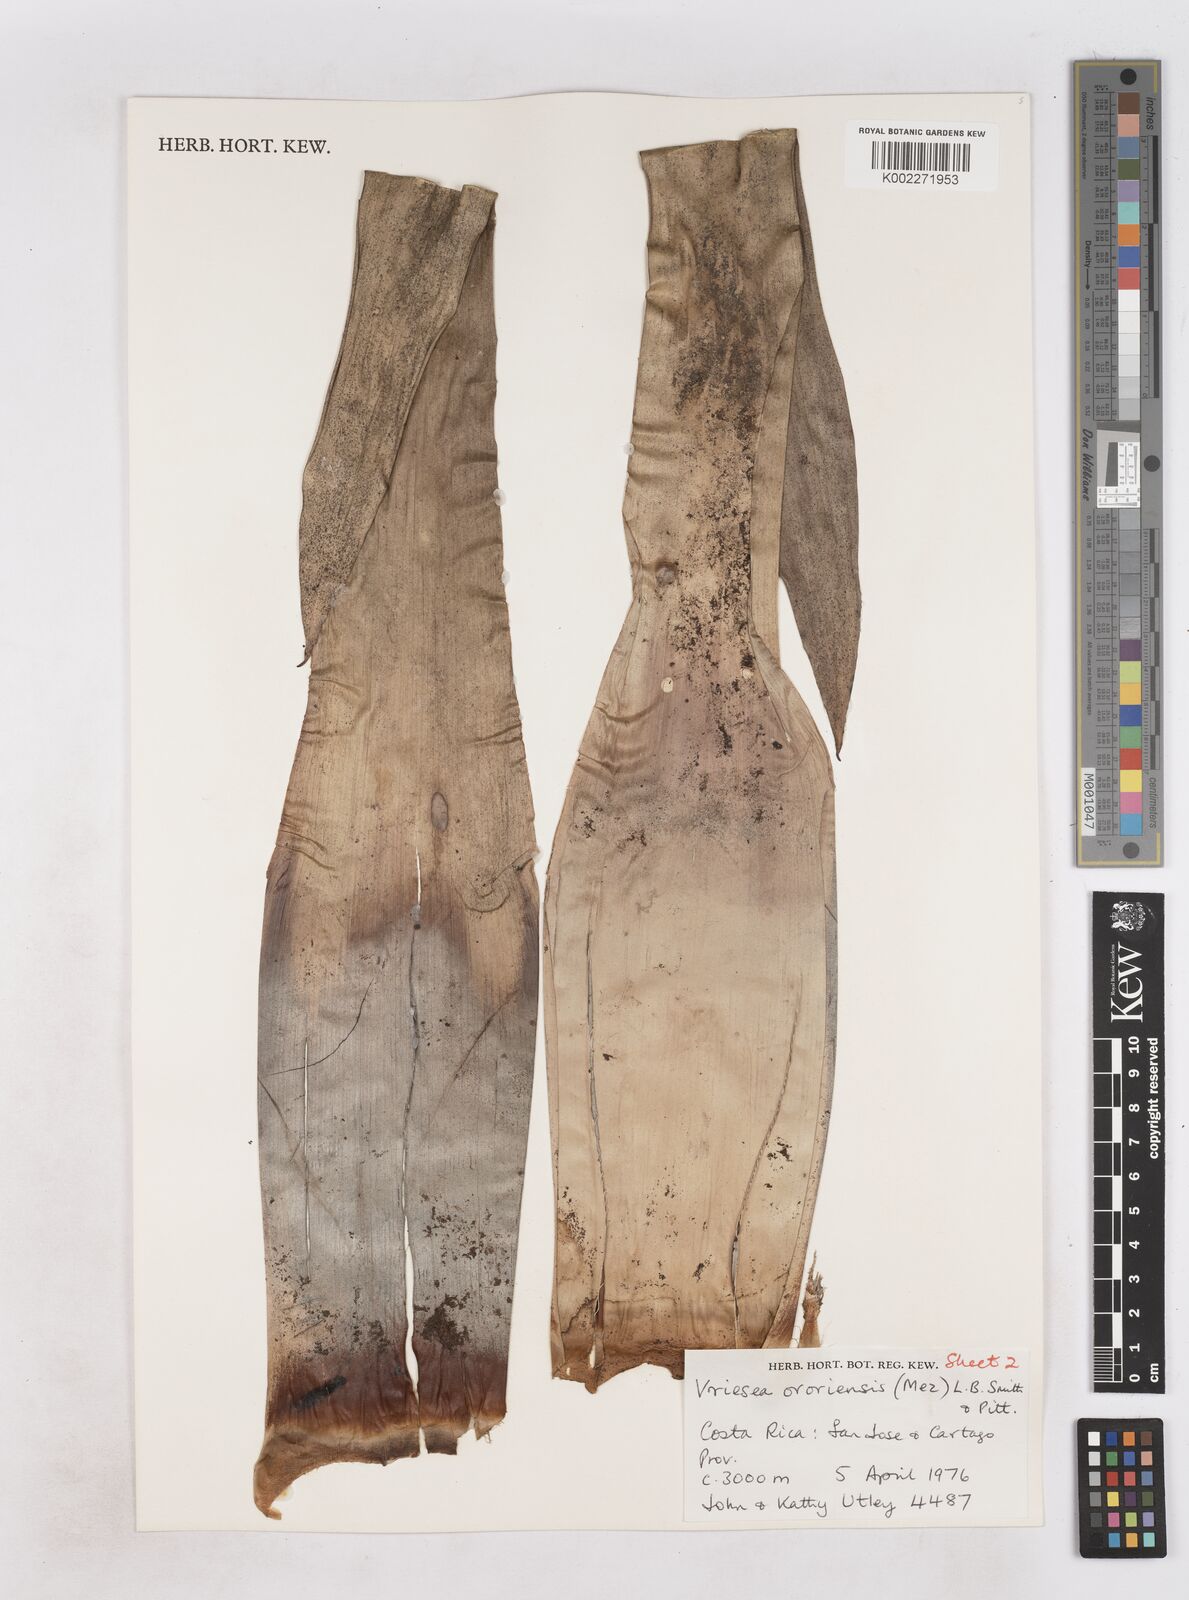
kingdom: Plantae
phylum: Tracheophyta
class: Liliopsida
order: Poales
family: Bromeliaceae
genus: Werauhia
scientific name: Werauhia ororiensis
